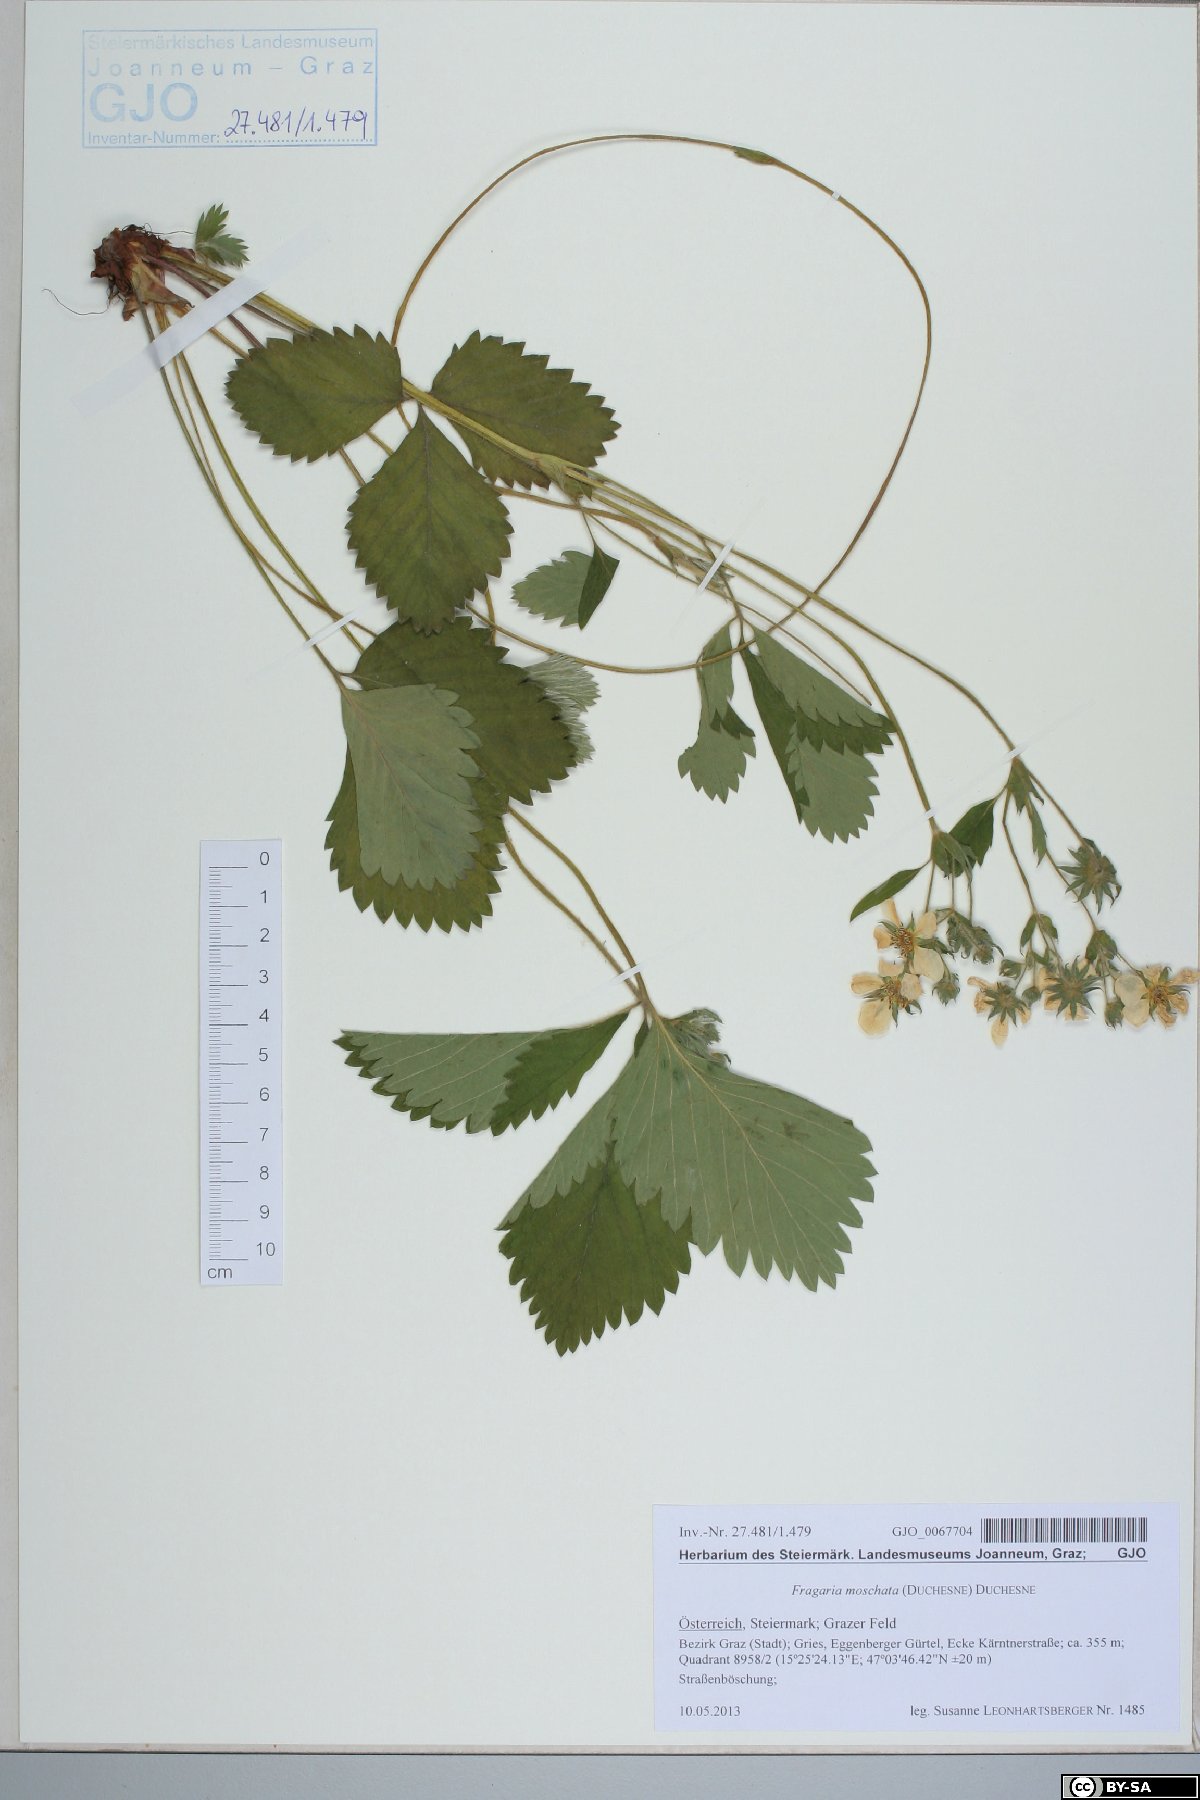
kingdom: Plantae
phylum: Tracheophyta
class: Magnoliopsida
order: Rosales
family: Rosaceae
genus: Fragaria
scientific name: Fragaria moschata
